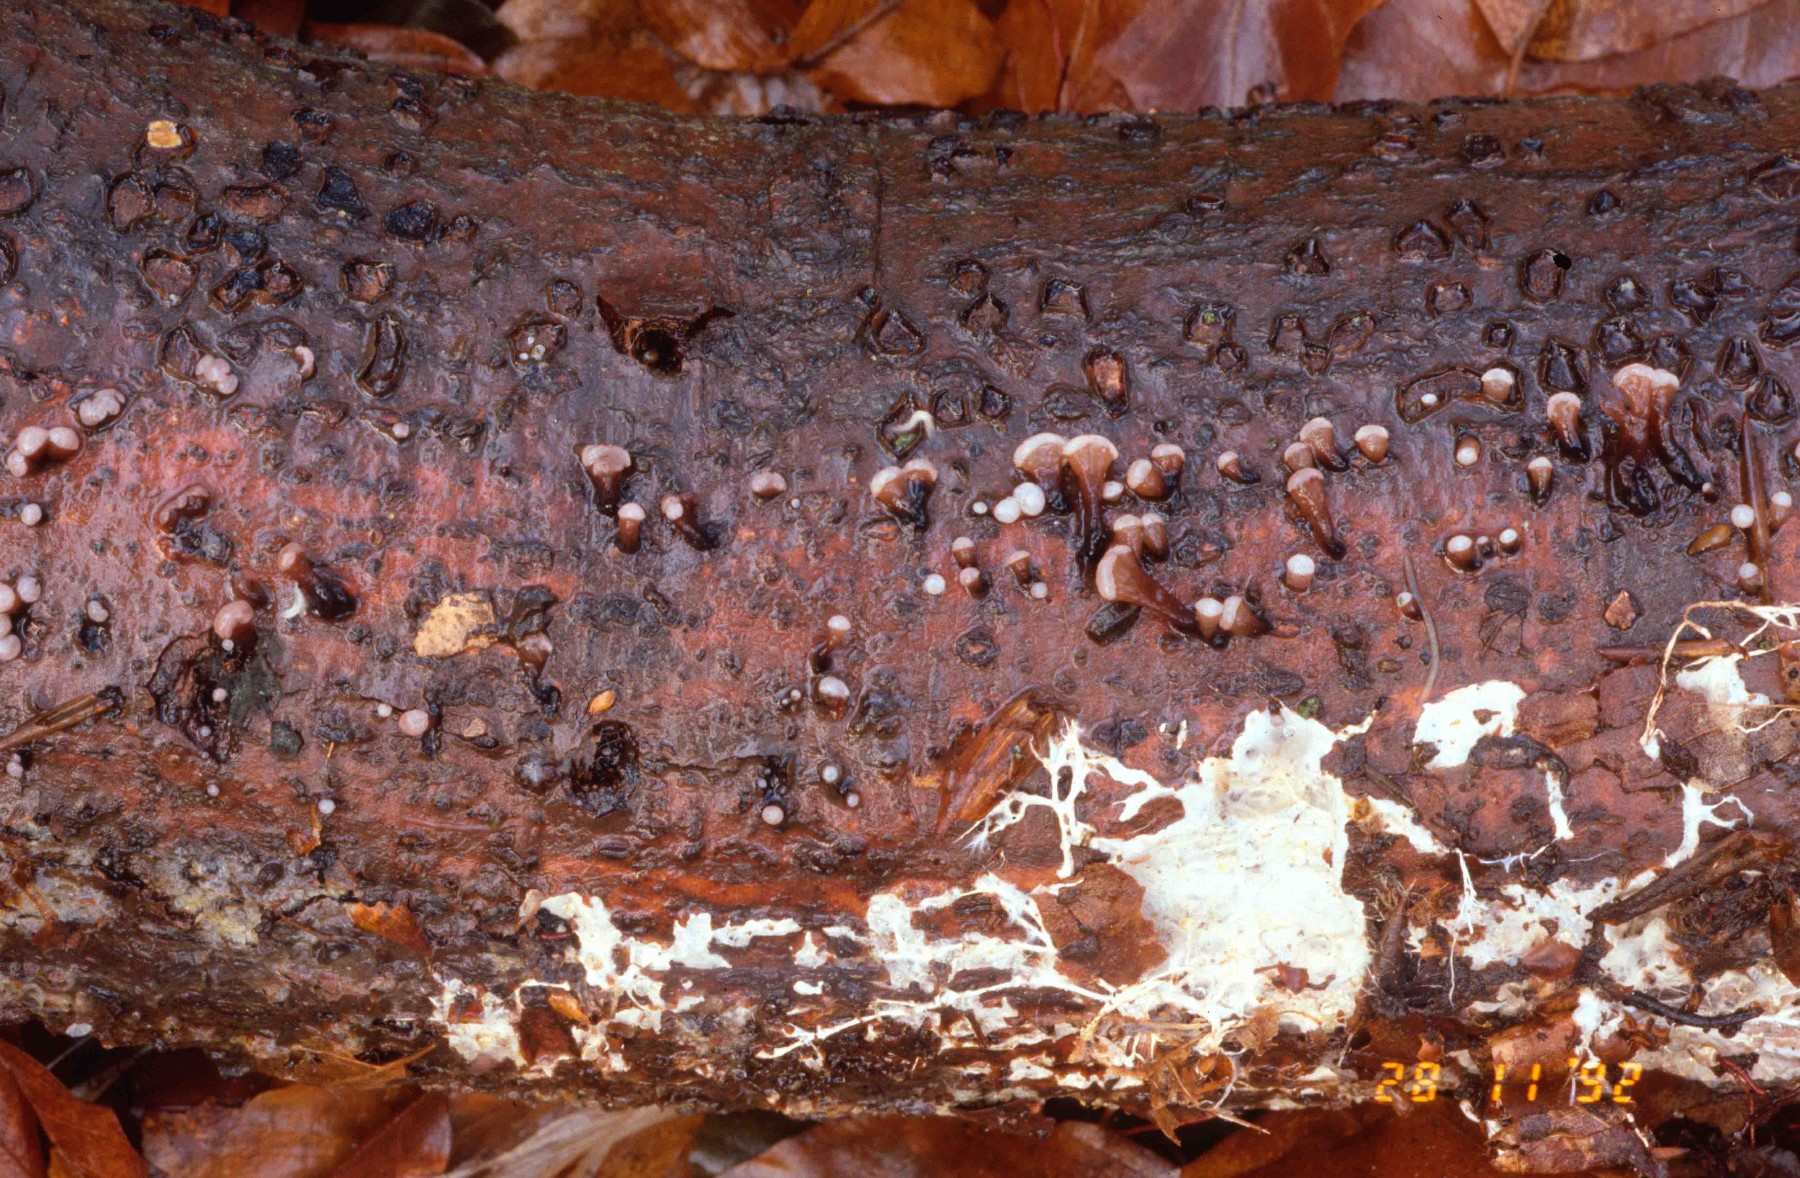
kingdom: Fungi
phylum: Ascomycota
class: Leotiomycetes
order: Helotiales
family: Gelatinodiscaceae
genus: Ascocoryne
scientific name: Ascocoryne albida
